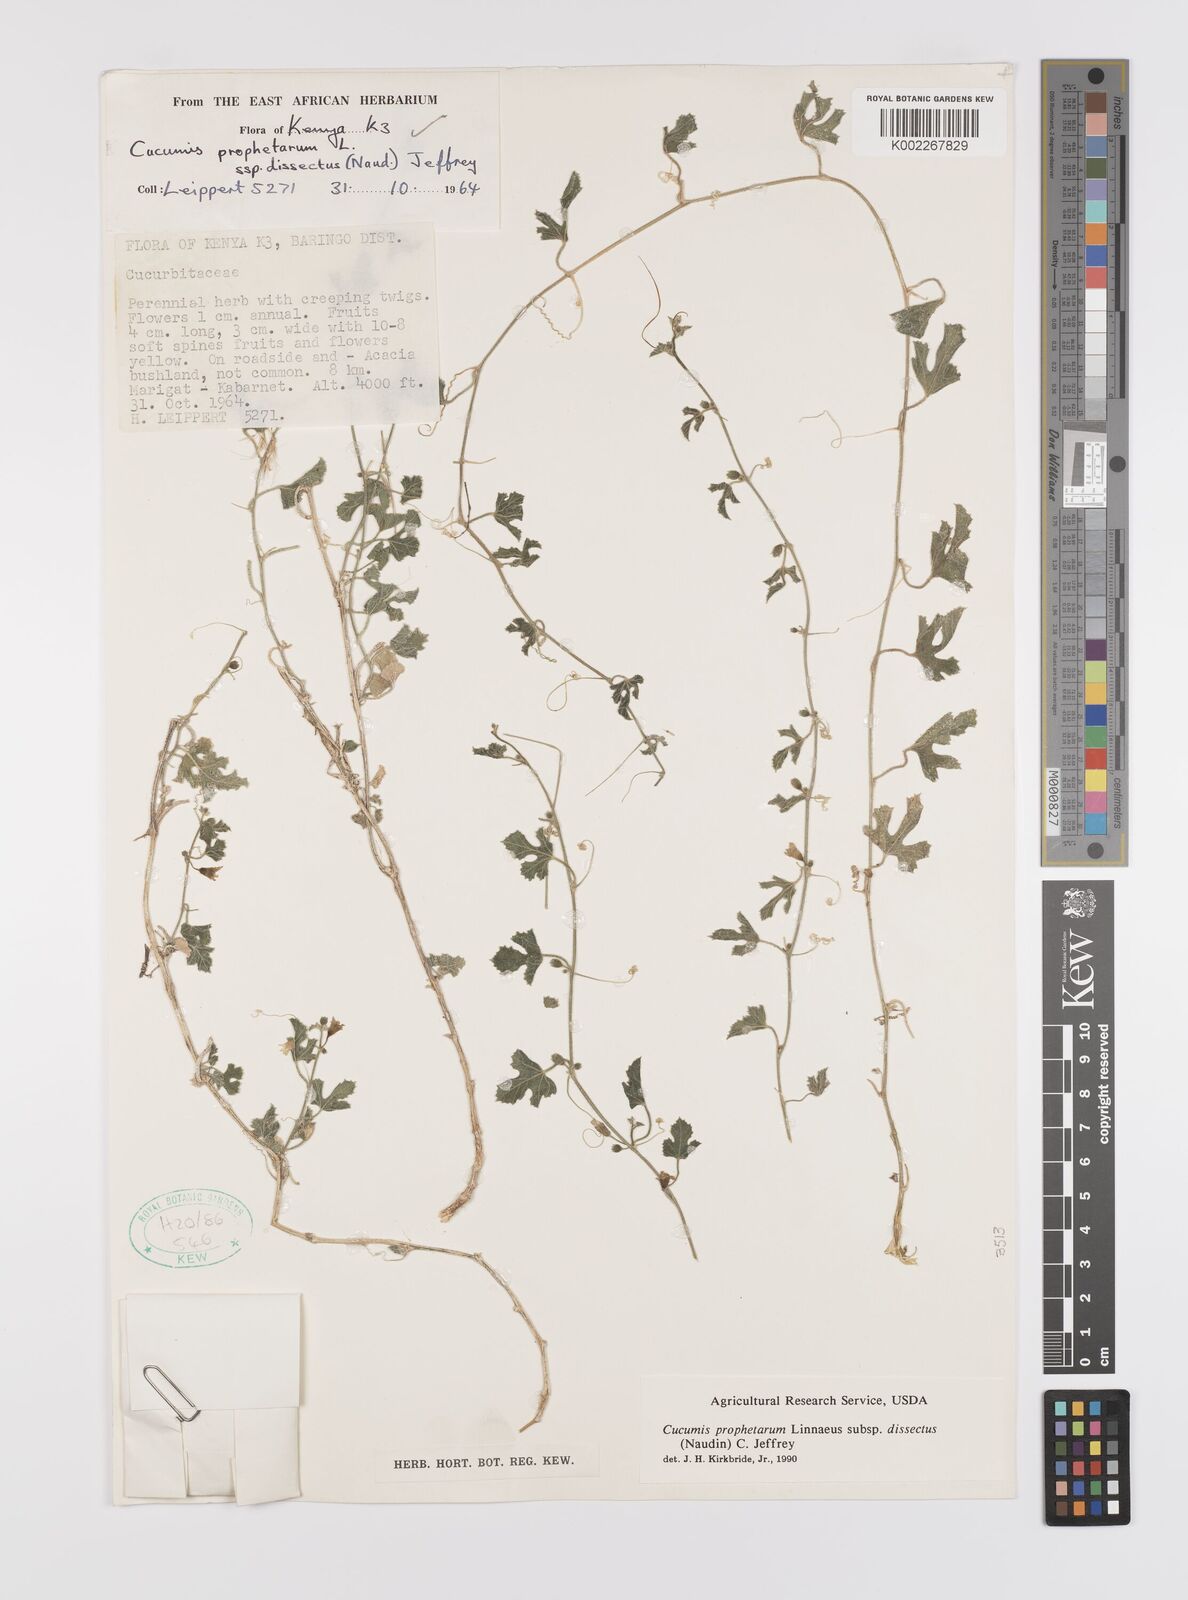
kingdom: Plantae
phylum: Tracheophyta
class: Magnoliopsida
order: Cucurbitales
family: Cucurbitaceae
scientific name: Cucurbitaceae
